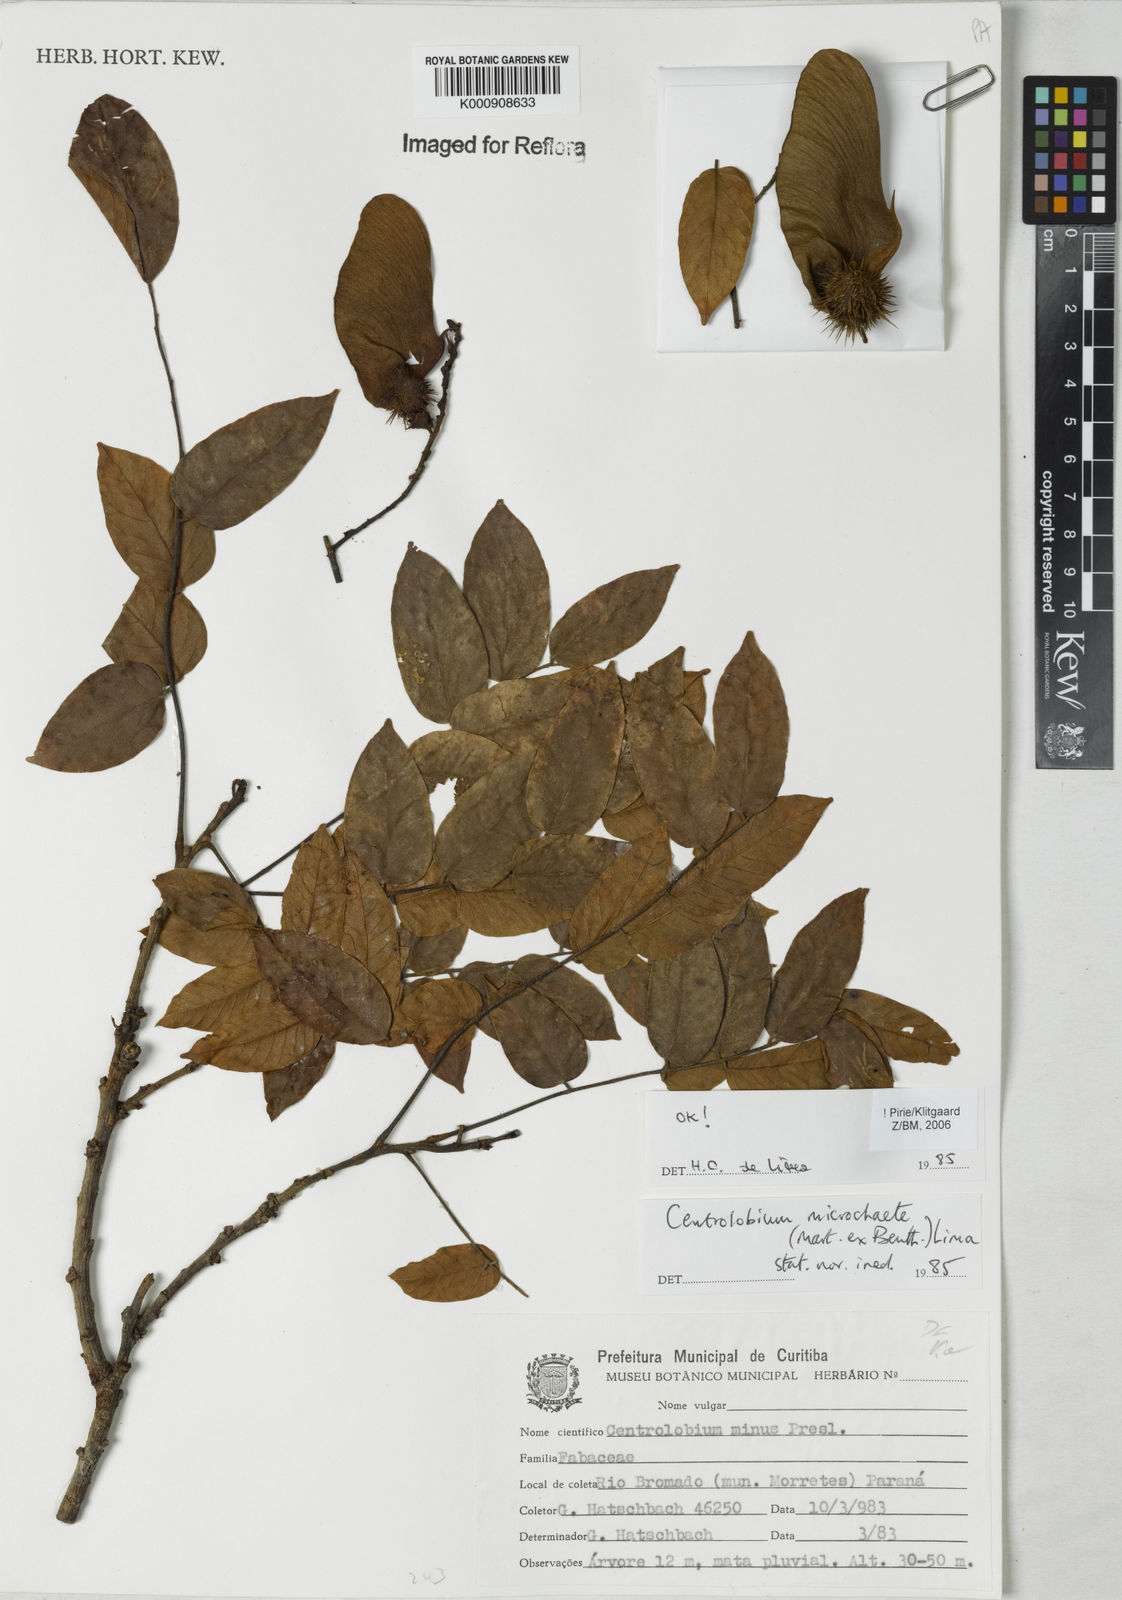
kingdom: Plantae
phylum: Tracheophyta
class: Magnoliopsida
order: Fabales
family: Fabaceae
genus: Centrolobium
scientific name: Centrolobium microchaete
